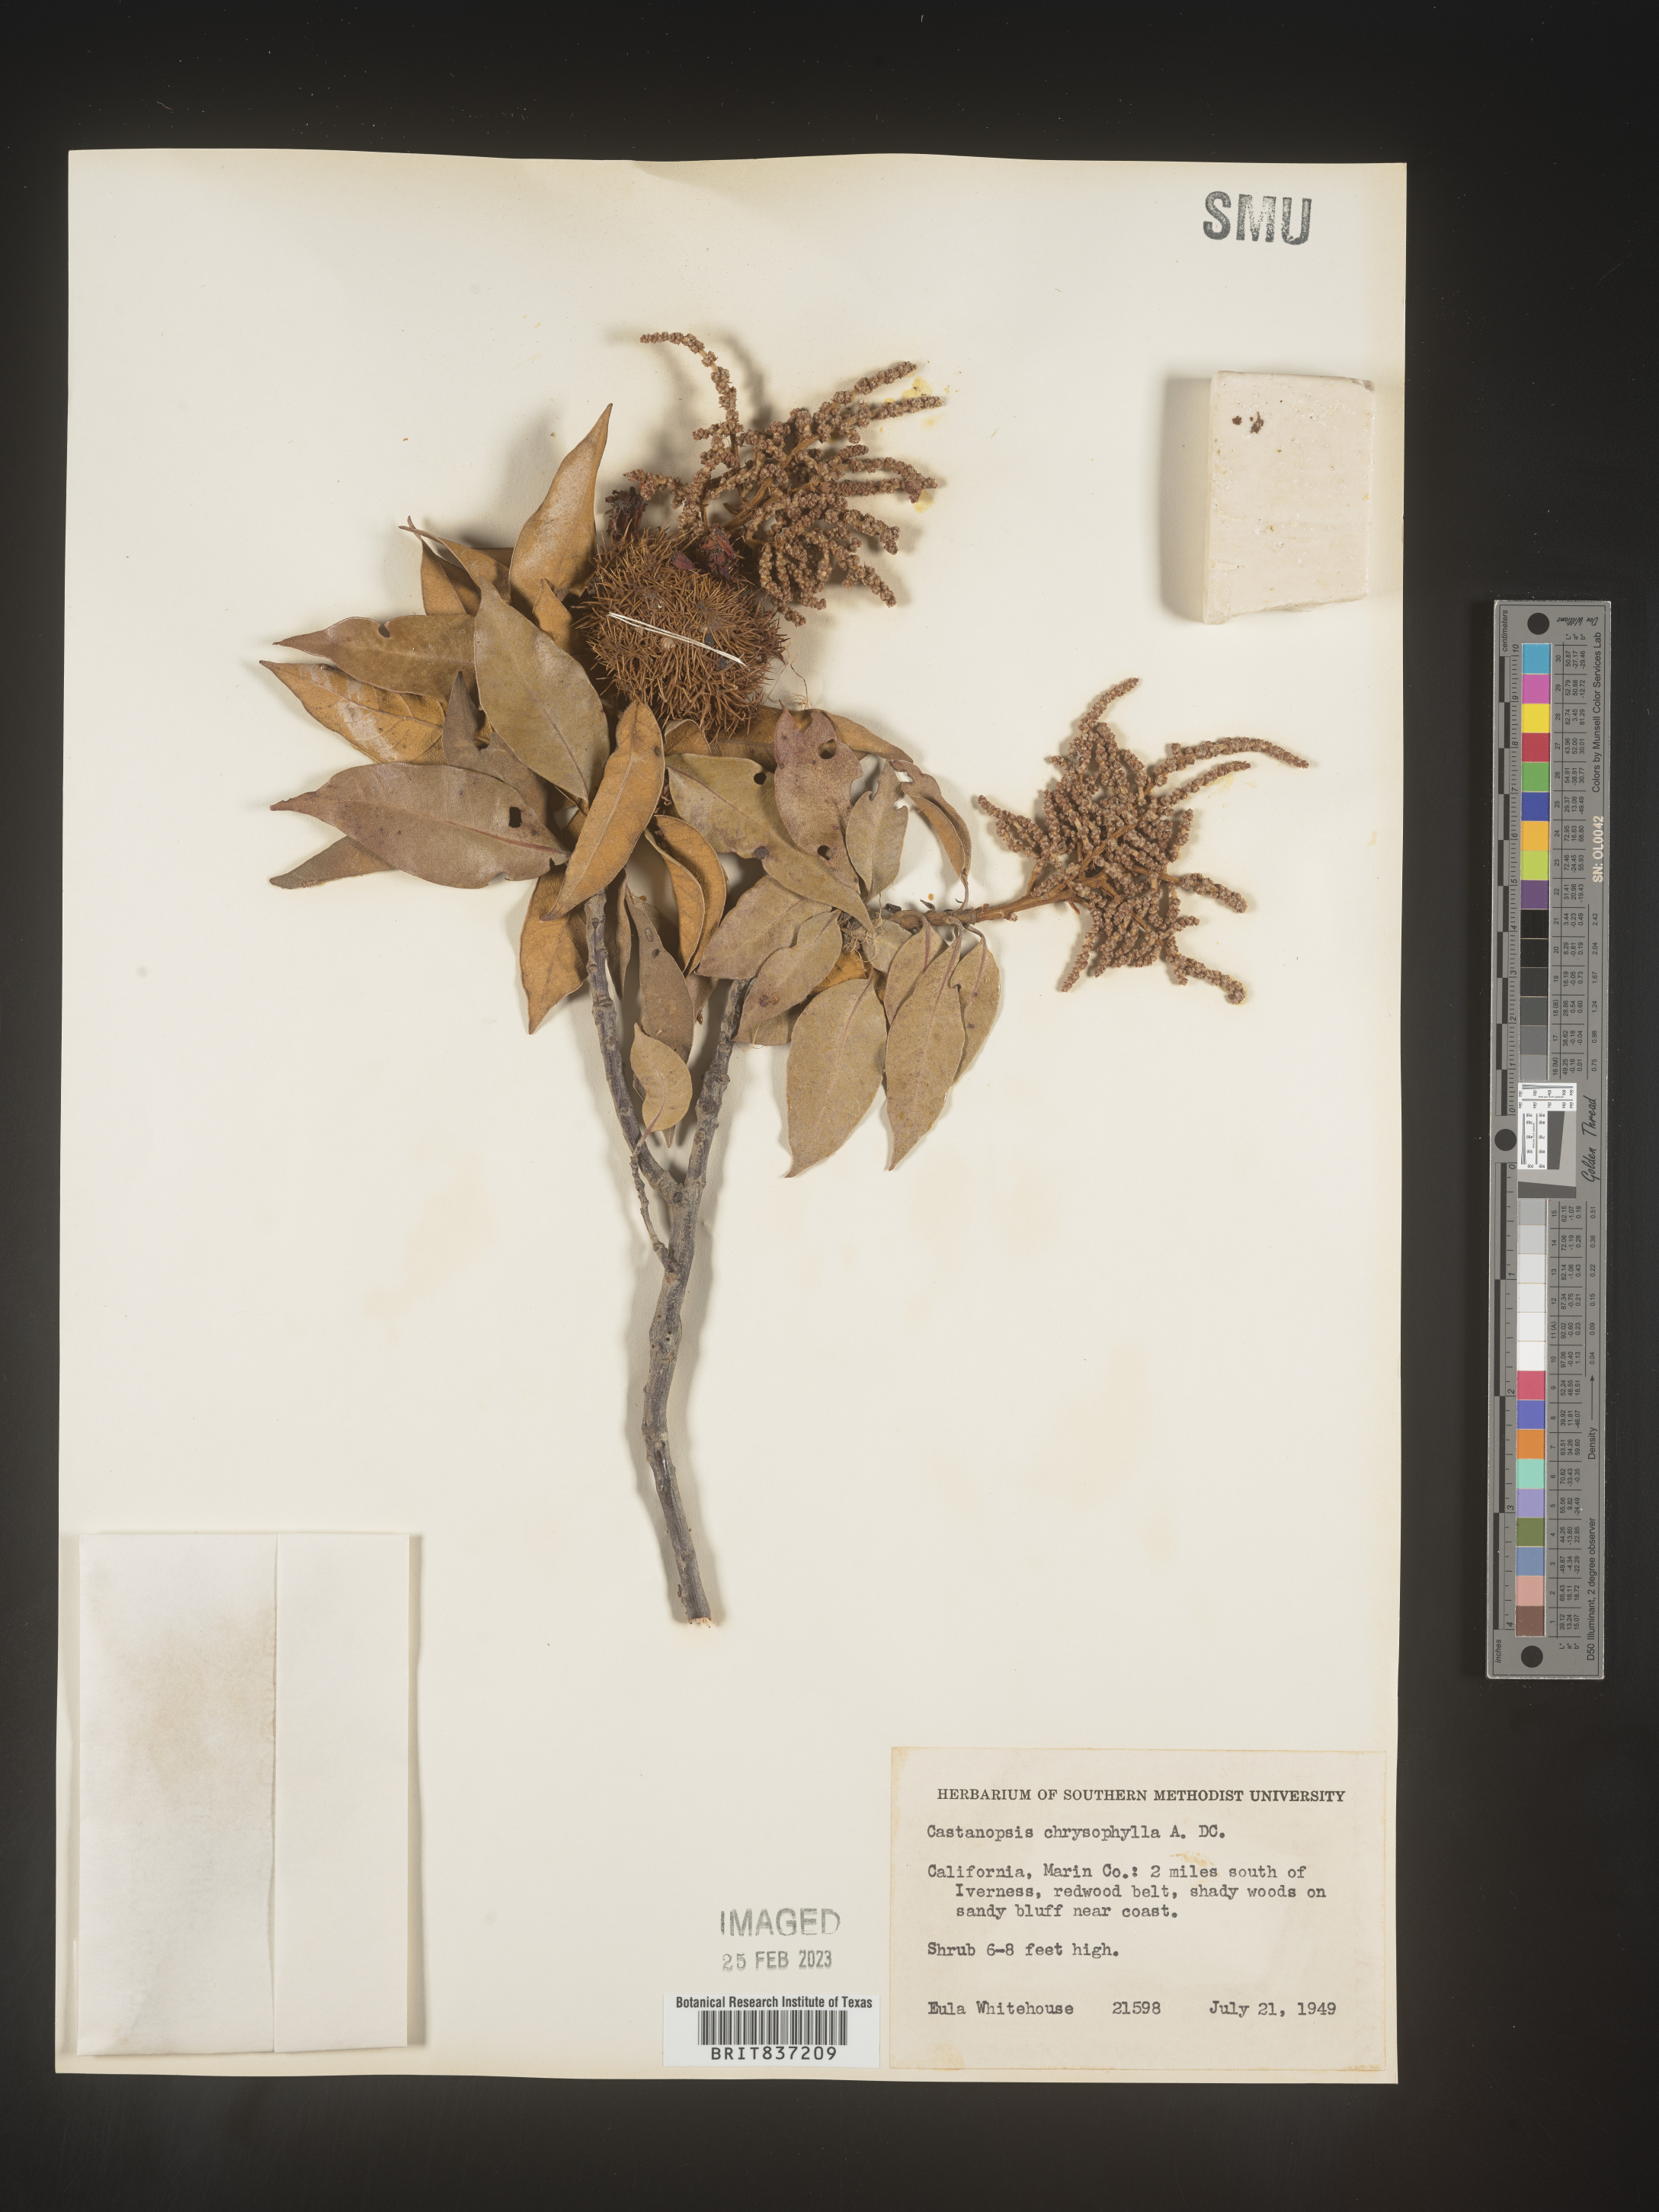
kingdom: Plantae
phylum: Tracheophyta
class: Magnoliopsida
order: Fagales
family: Fagaceae
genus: Castanopsis
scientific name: Castanopsis
